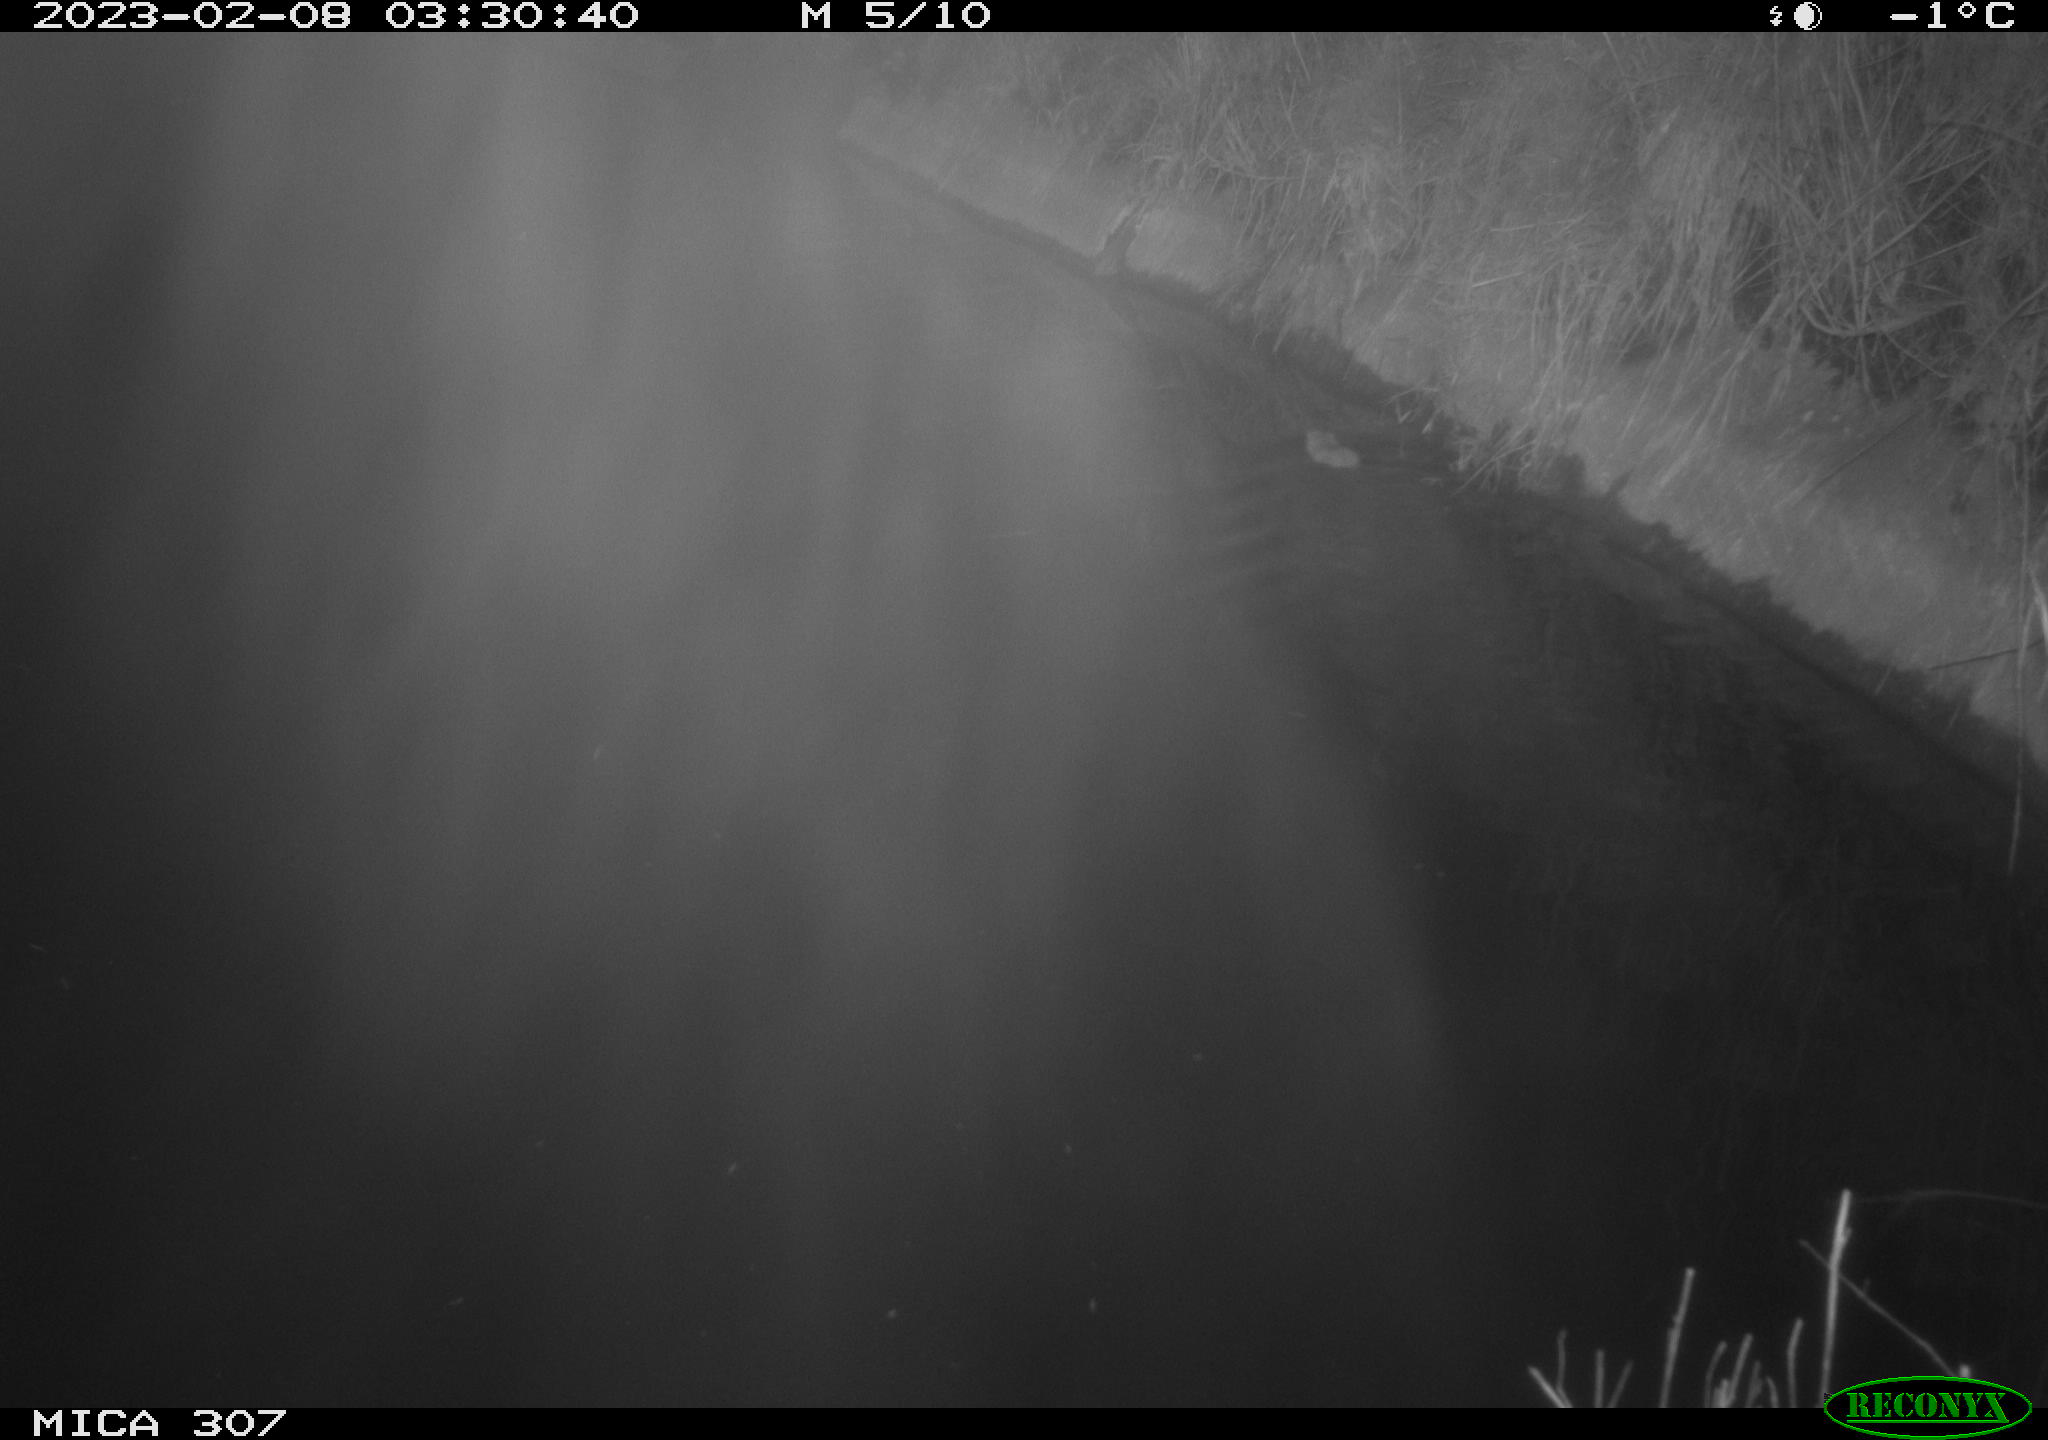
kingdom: Animalia
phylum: Chordata
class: Mammalia
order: Rodentia
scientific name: Rodentia
